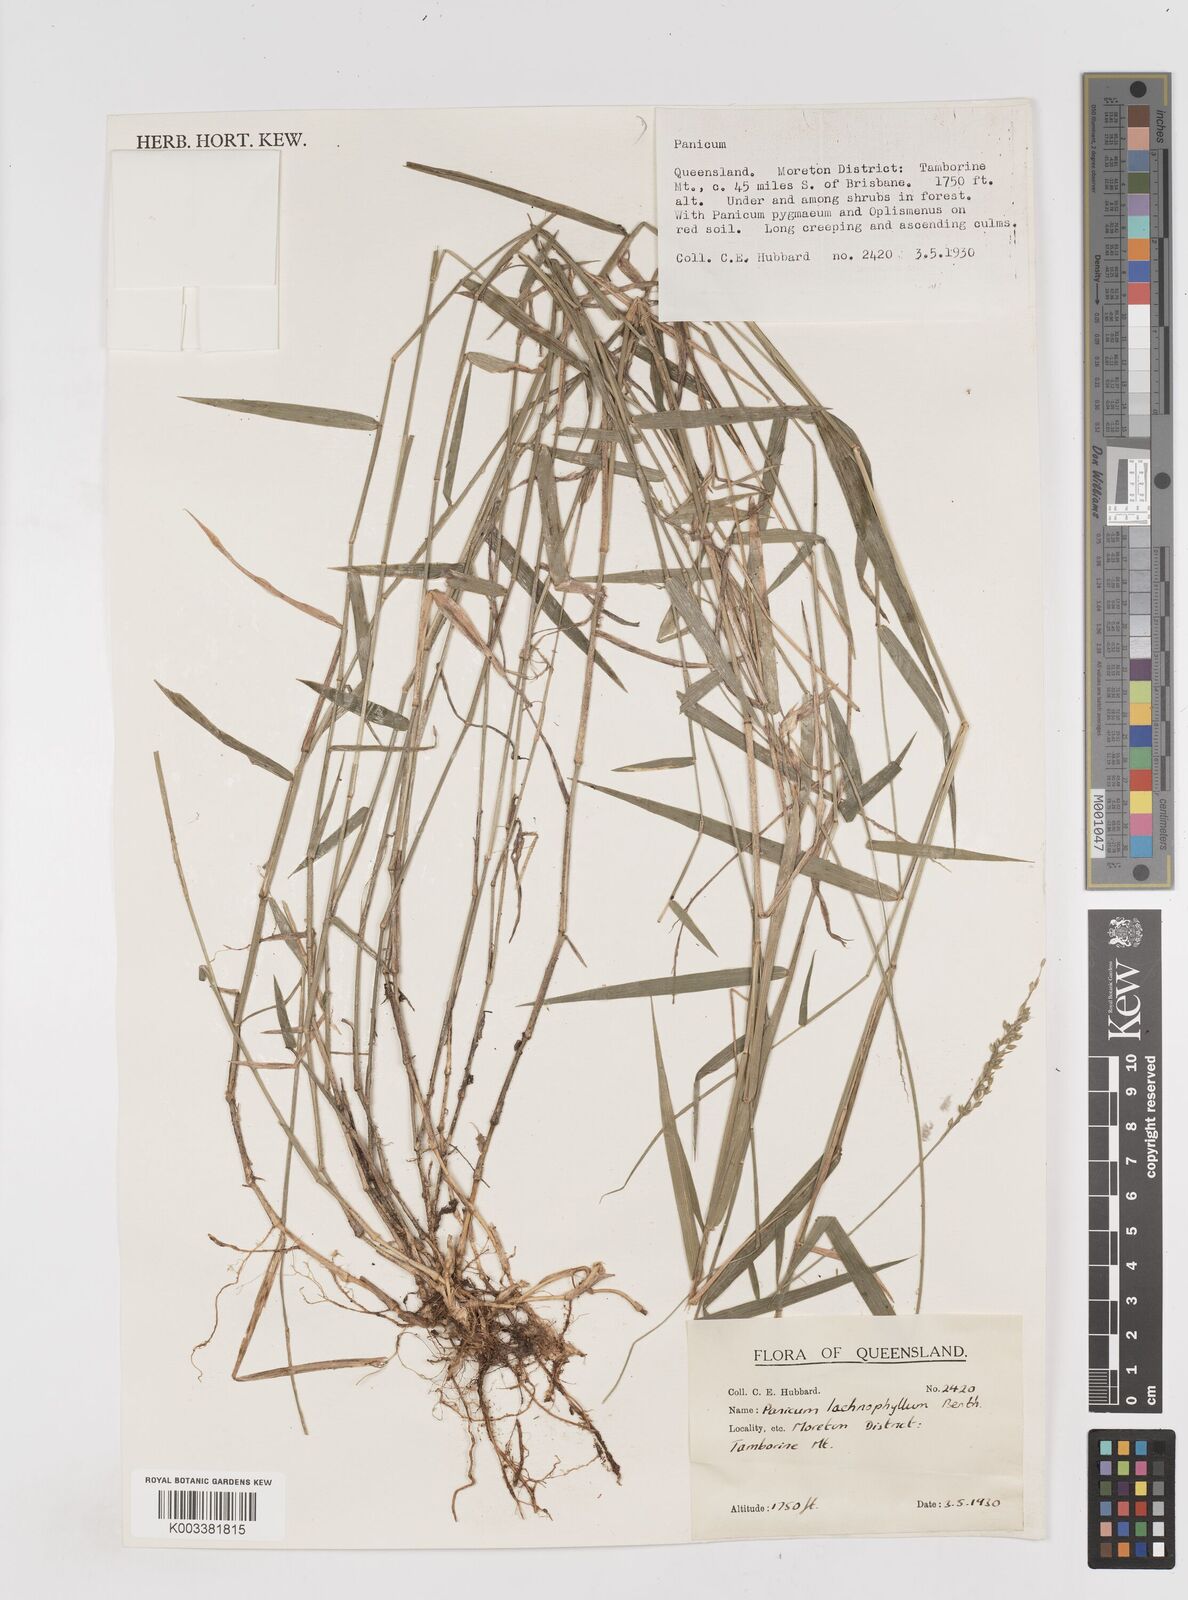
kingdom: Plantae
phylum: Tracheophyta
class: Liliopsida
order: Poales
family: Poaceae
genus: Entolasia
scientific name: Entolasia
